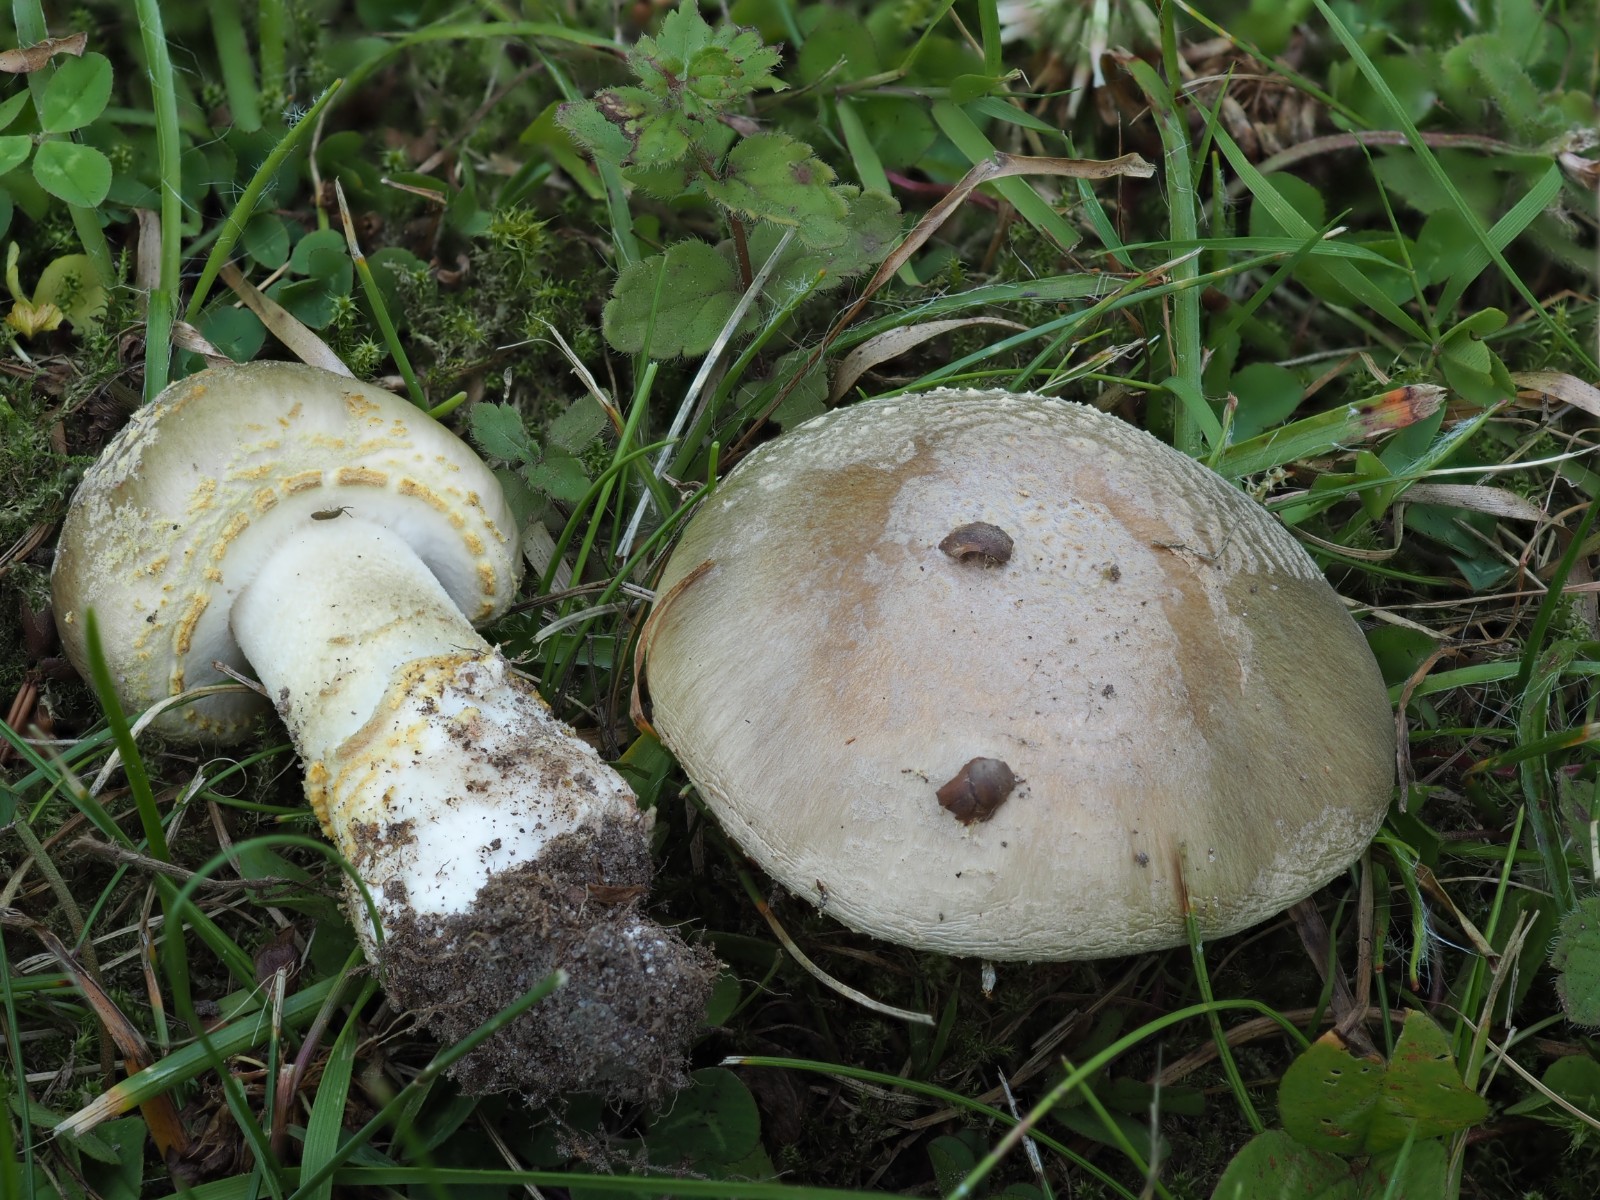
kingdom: Fungi
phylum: Basidiomycota
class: Agaricomycetes
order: Agaricales
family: Amanitaceae
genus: Amanita
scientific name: Amanita franchetii
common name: gulrandet fluesvamp
